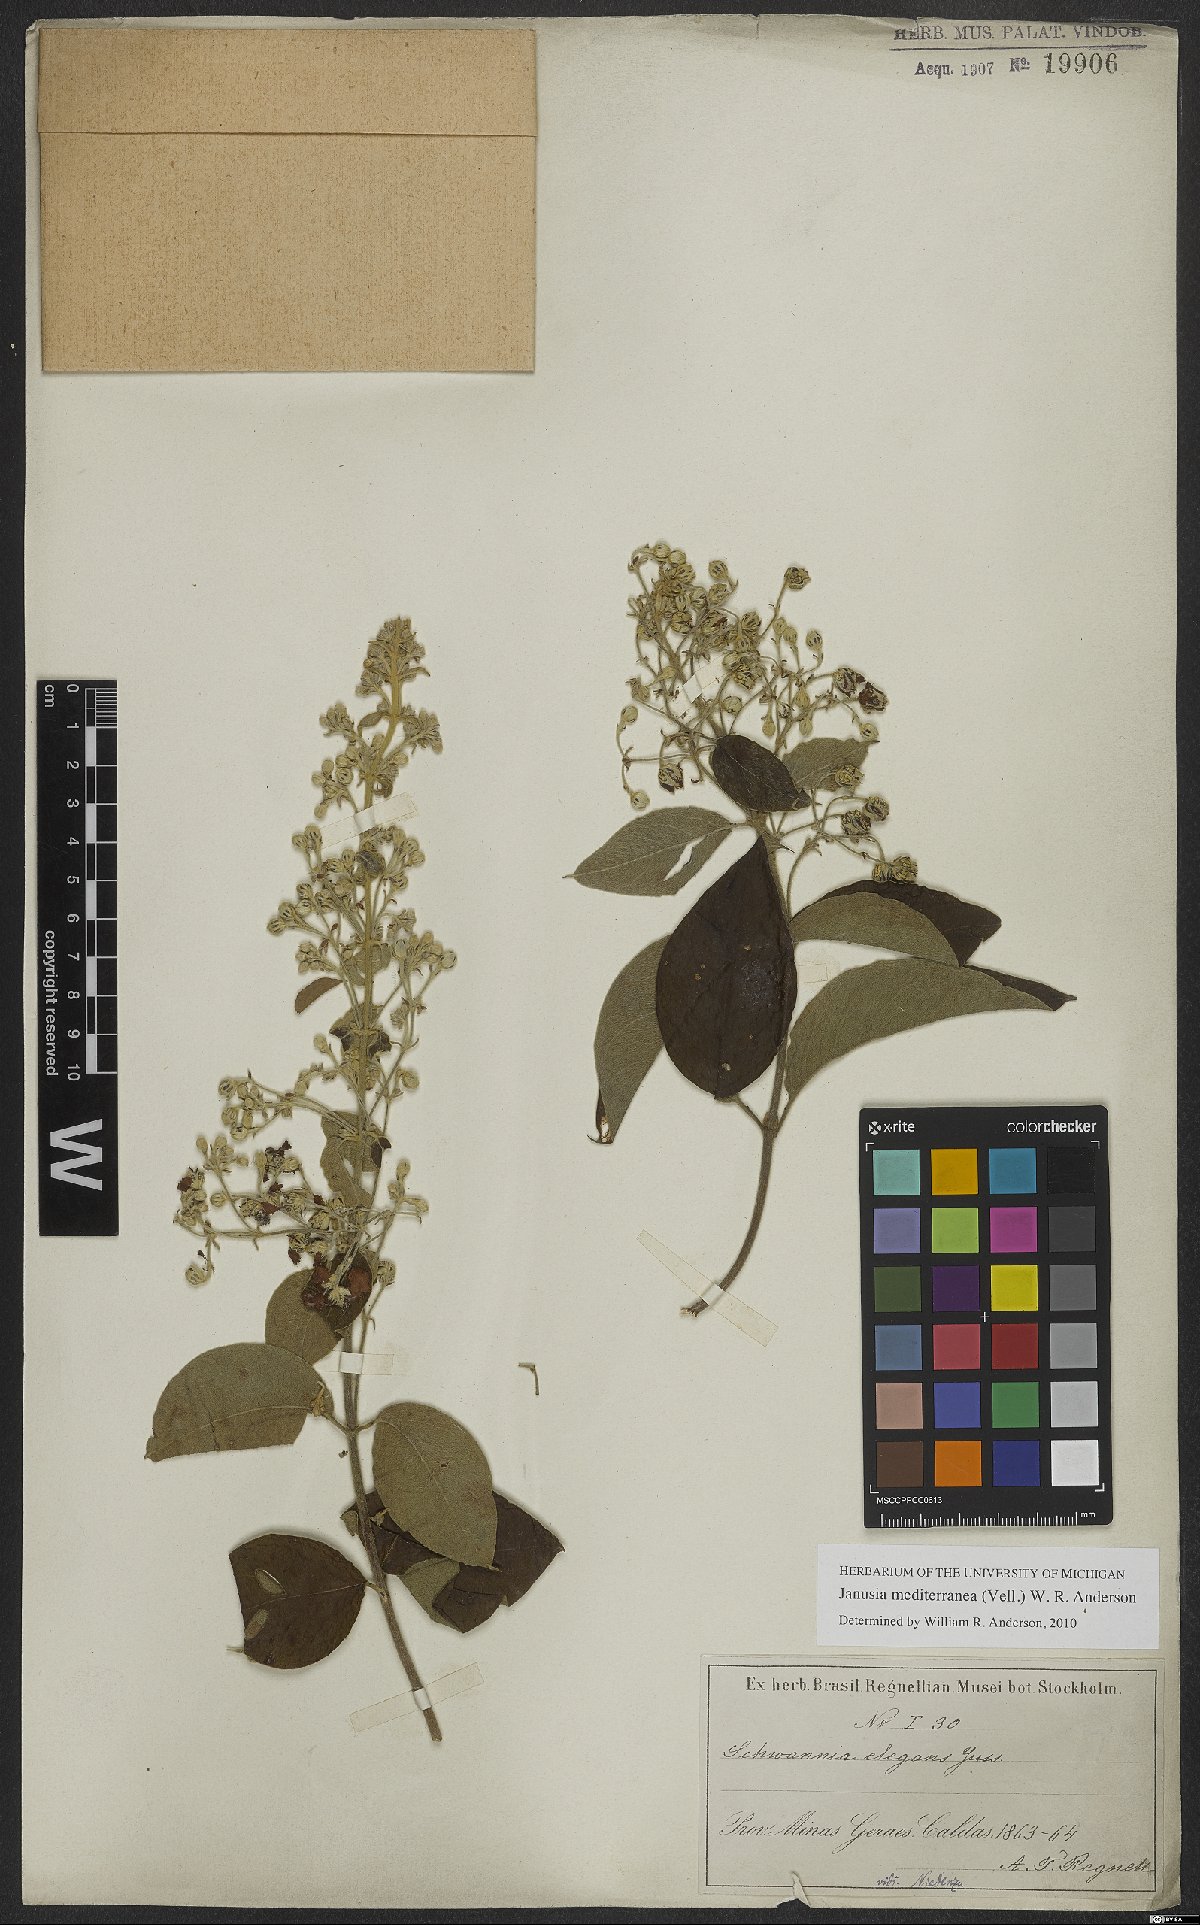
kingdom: Plantae
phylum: Tracheophyta
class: Magnoliopsida
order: Malpighiales
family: Malpighiaceae
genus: Janusia
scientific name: Janusia mediterranea
